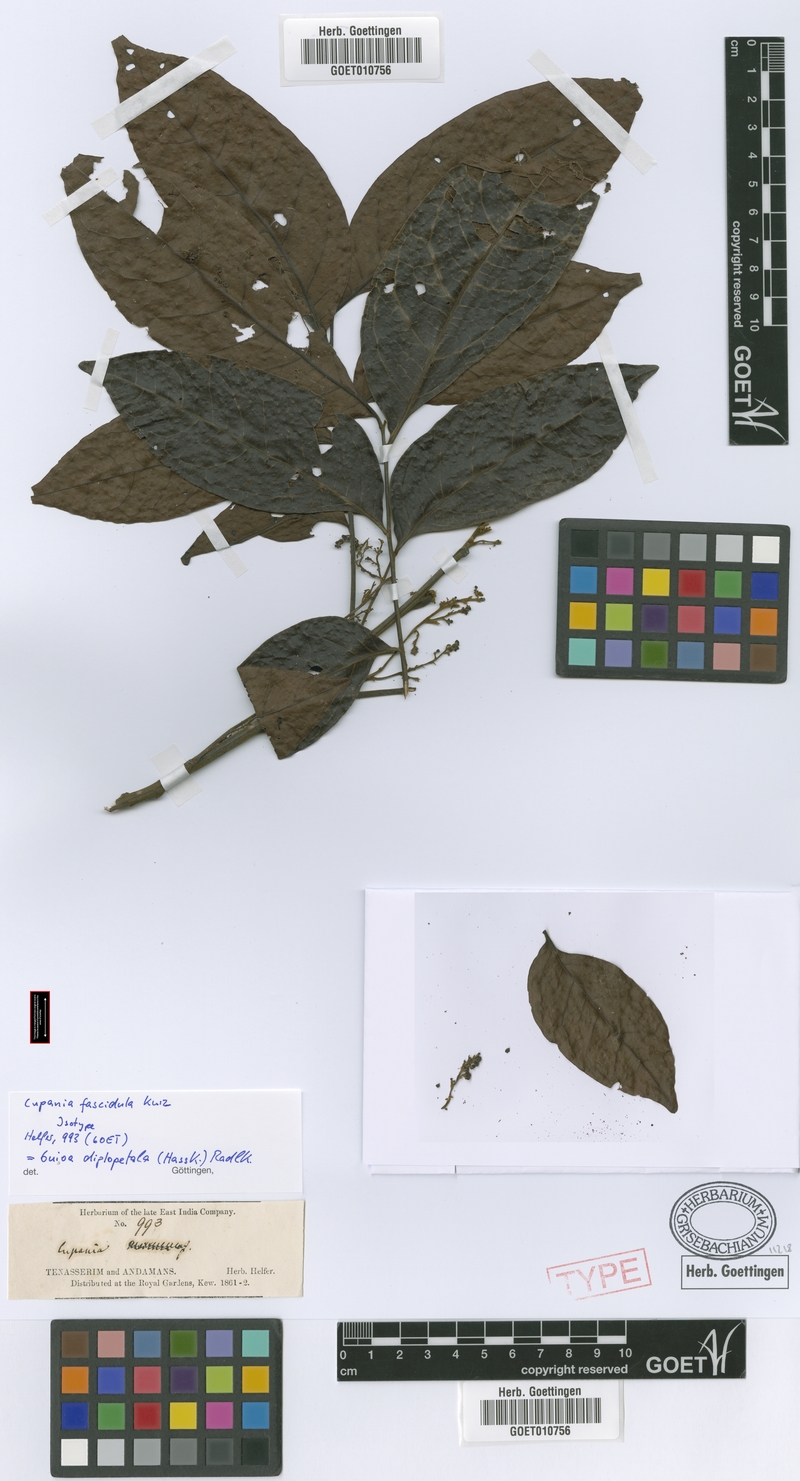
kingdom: Plantae
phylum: Tracheophyta
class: Magnoliopsida
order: Sapindales
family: Sapindaceae
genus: Guioa
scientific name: Guioa diplopetala
